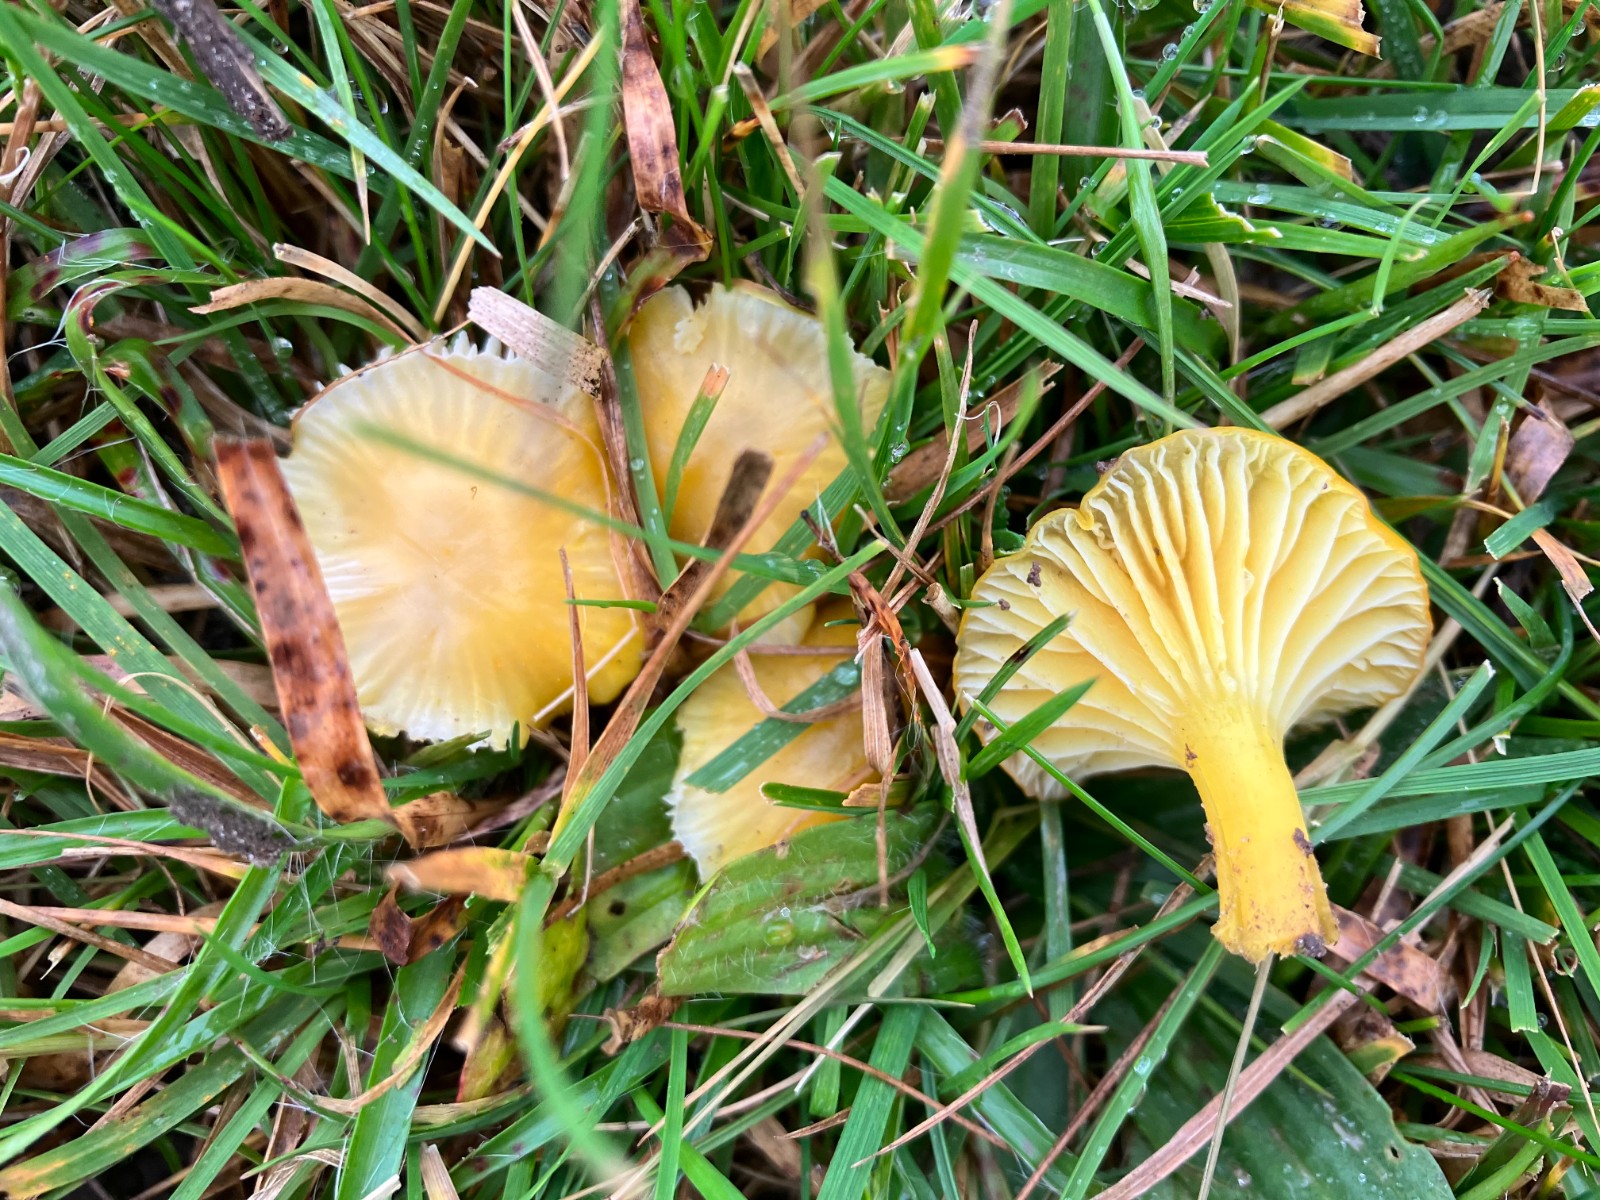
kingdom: Fungi
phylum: Basidiomycota
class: Agaricomycetes
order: Agaricales
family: Hygrophoraceae
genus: Hygrocybe
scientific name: Hygrocybe ceracea
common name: voksgul vokshat
